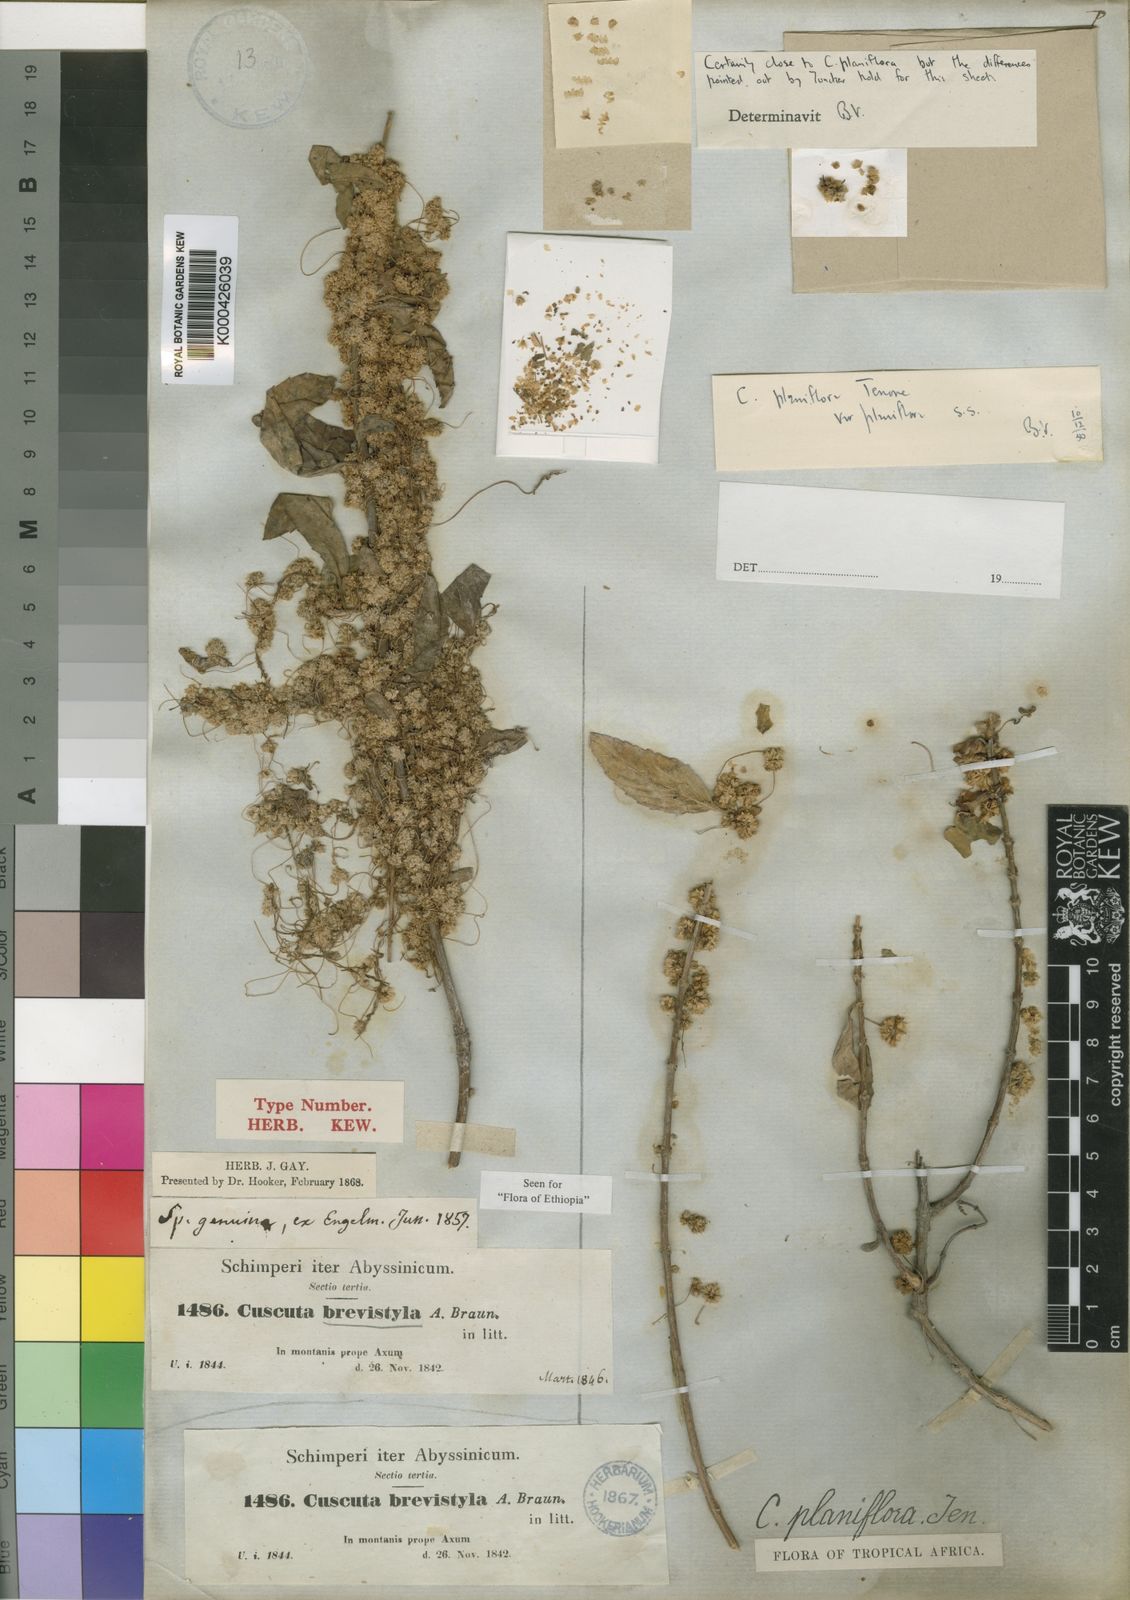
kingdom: Plantae
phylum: Tracheophyta
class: Magnoliopsida
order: Solanales
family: Convolvulaceae
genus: Cuscuta
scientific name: Cuscuta
